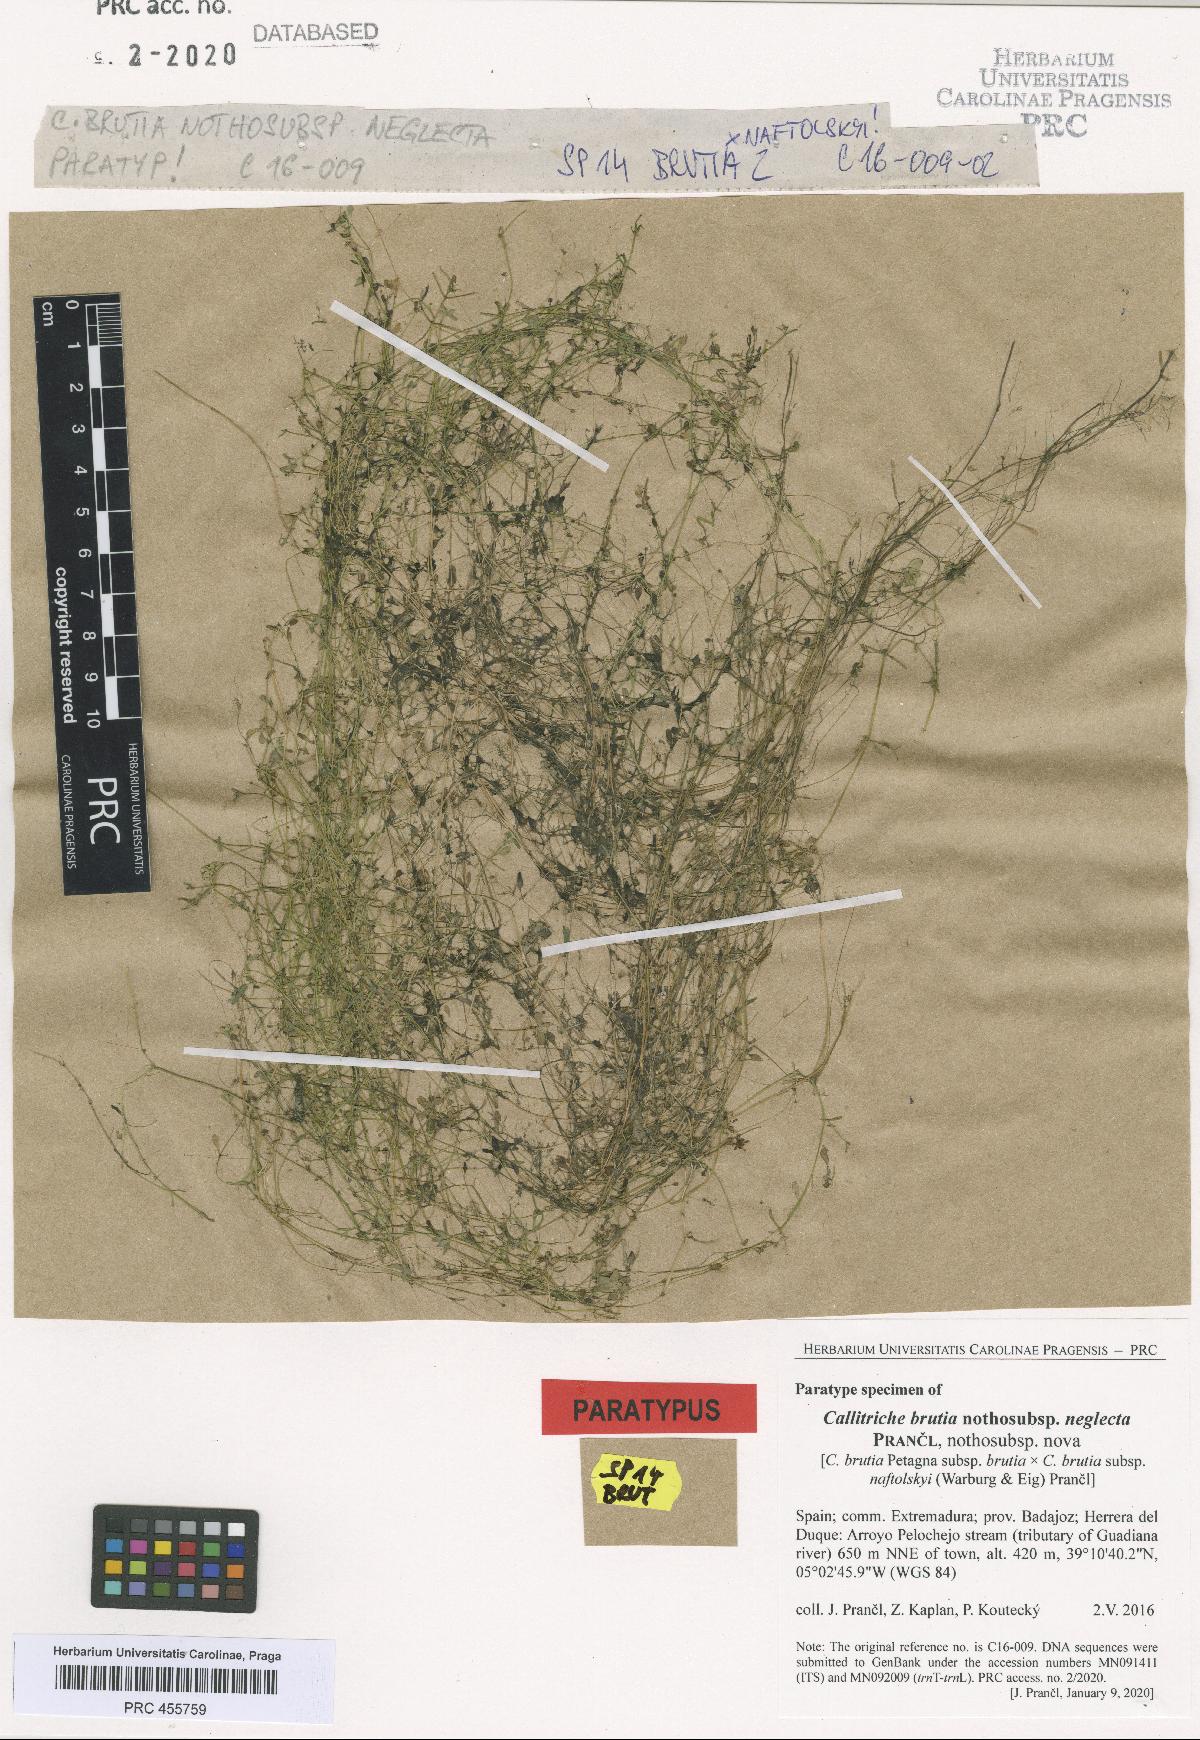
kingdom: Plantae
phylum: Tracheophyta
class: Magnoliopsida
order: Lamiales
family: Plantaginaceae
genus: Callitriche
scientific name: Callitriche brutia
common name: Pedunculate water-starwort
